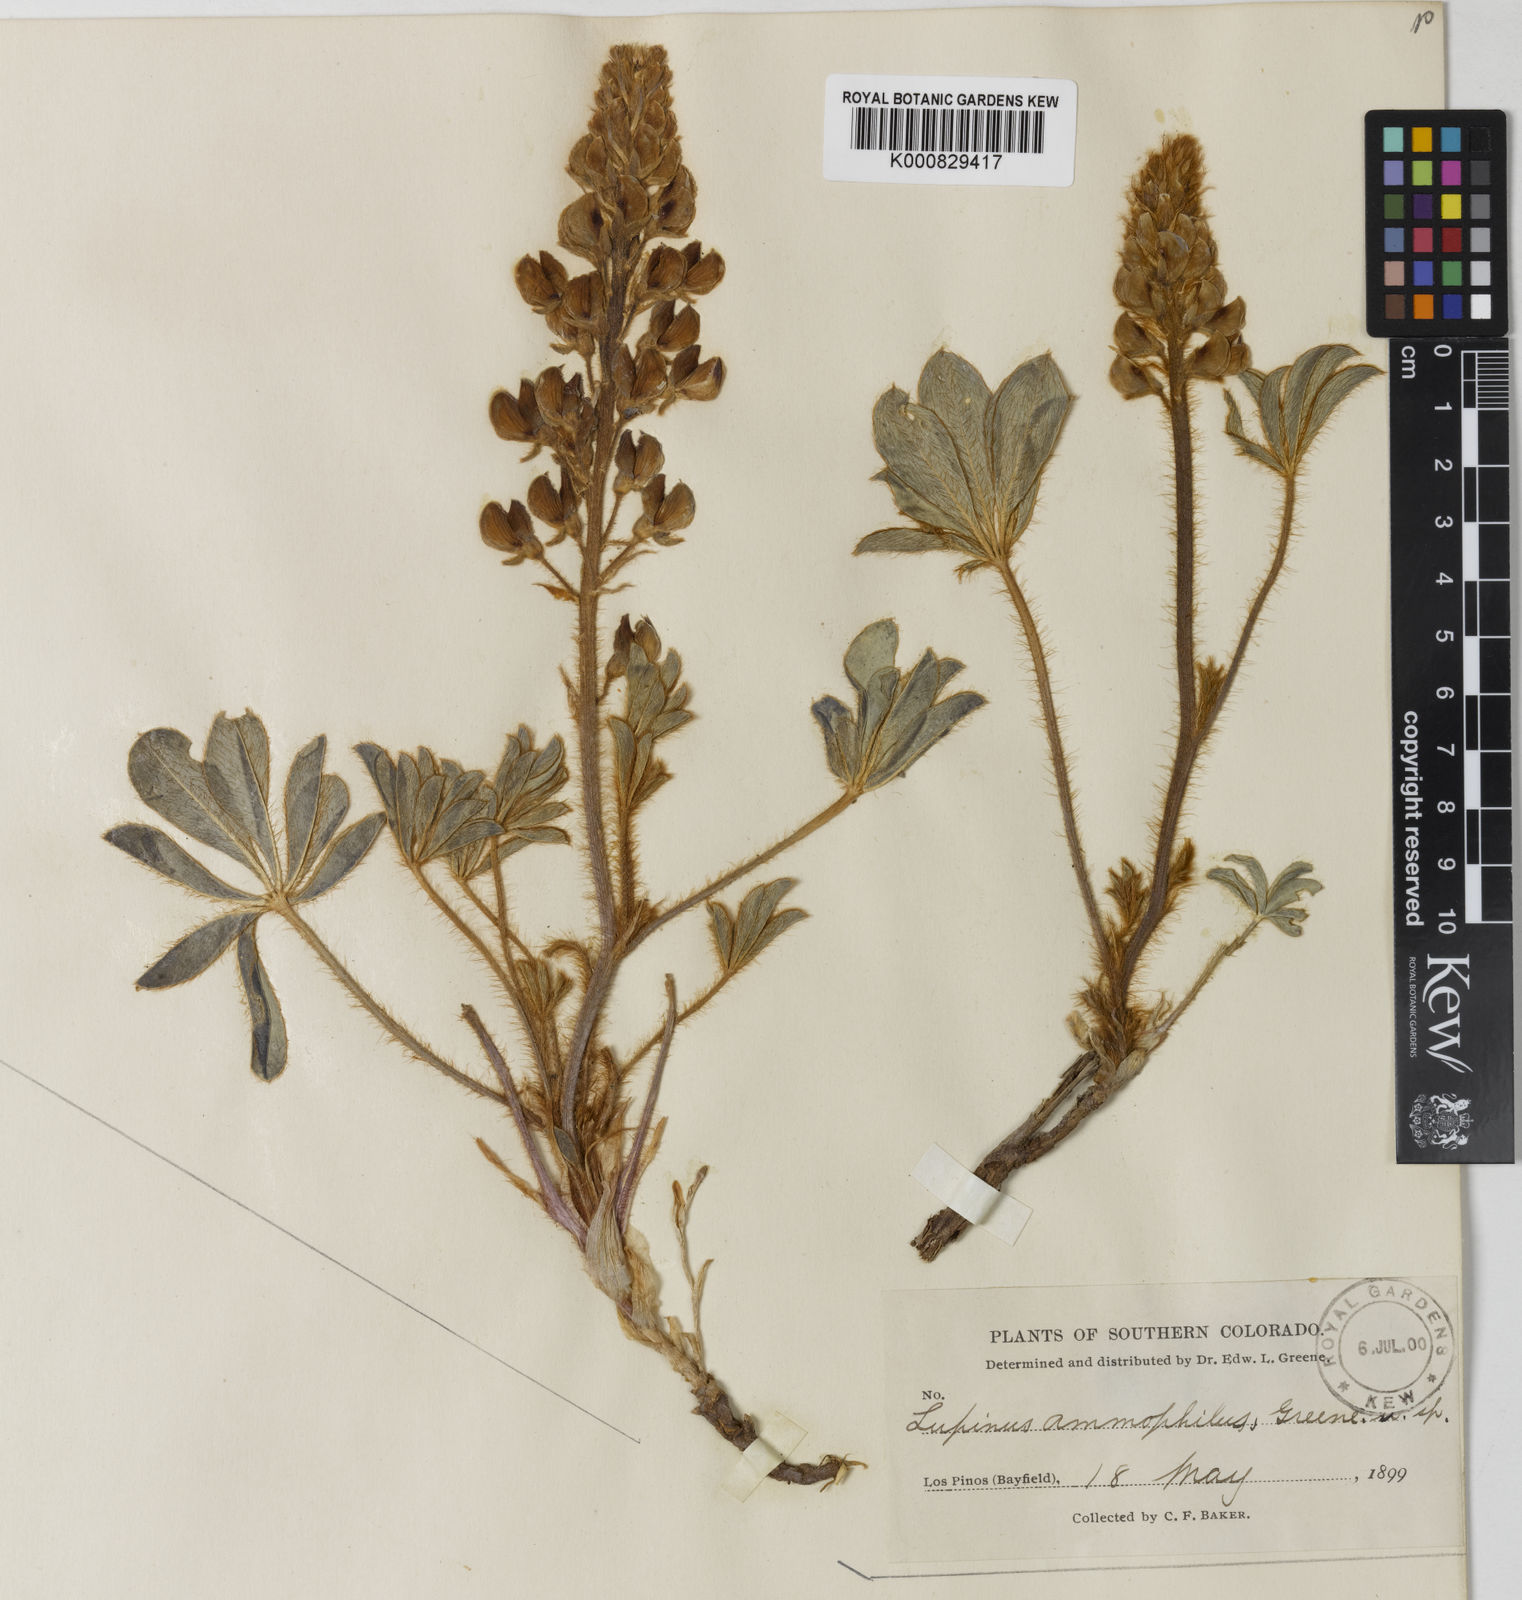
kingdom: Plantae
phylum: Tracheophyta
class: Magnoliopsida
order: Fabales
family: Fabaceae
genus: Lupinus
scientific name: Lupinus ammophilus
